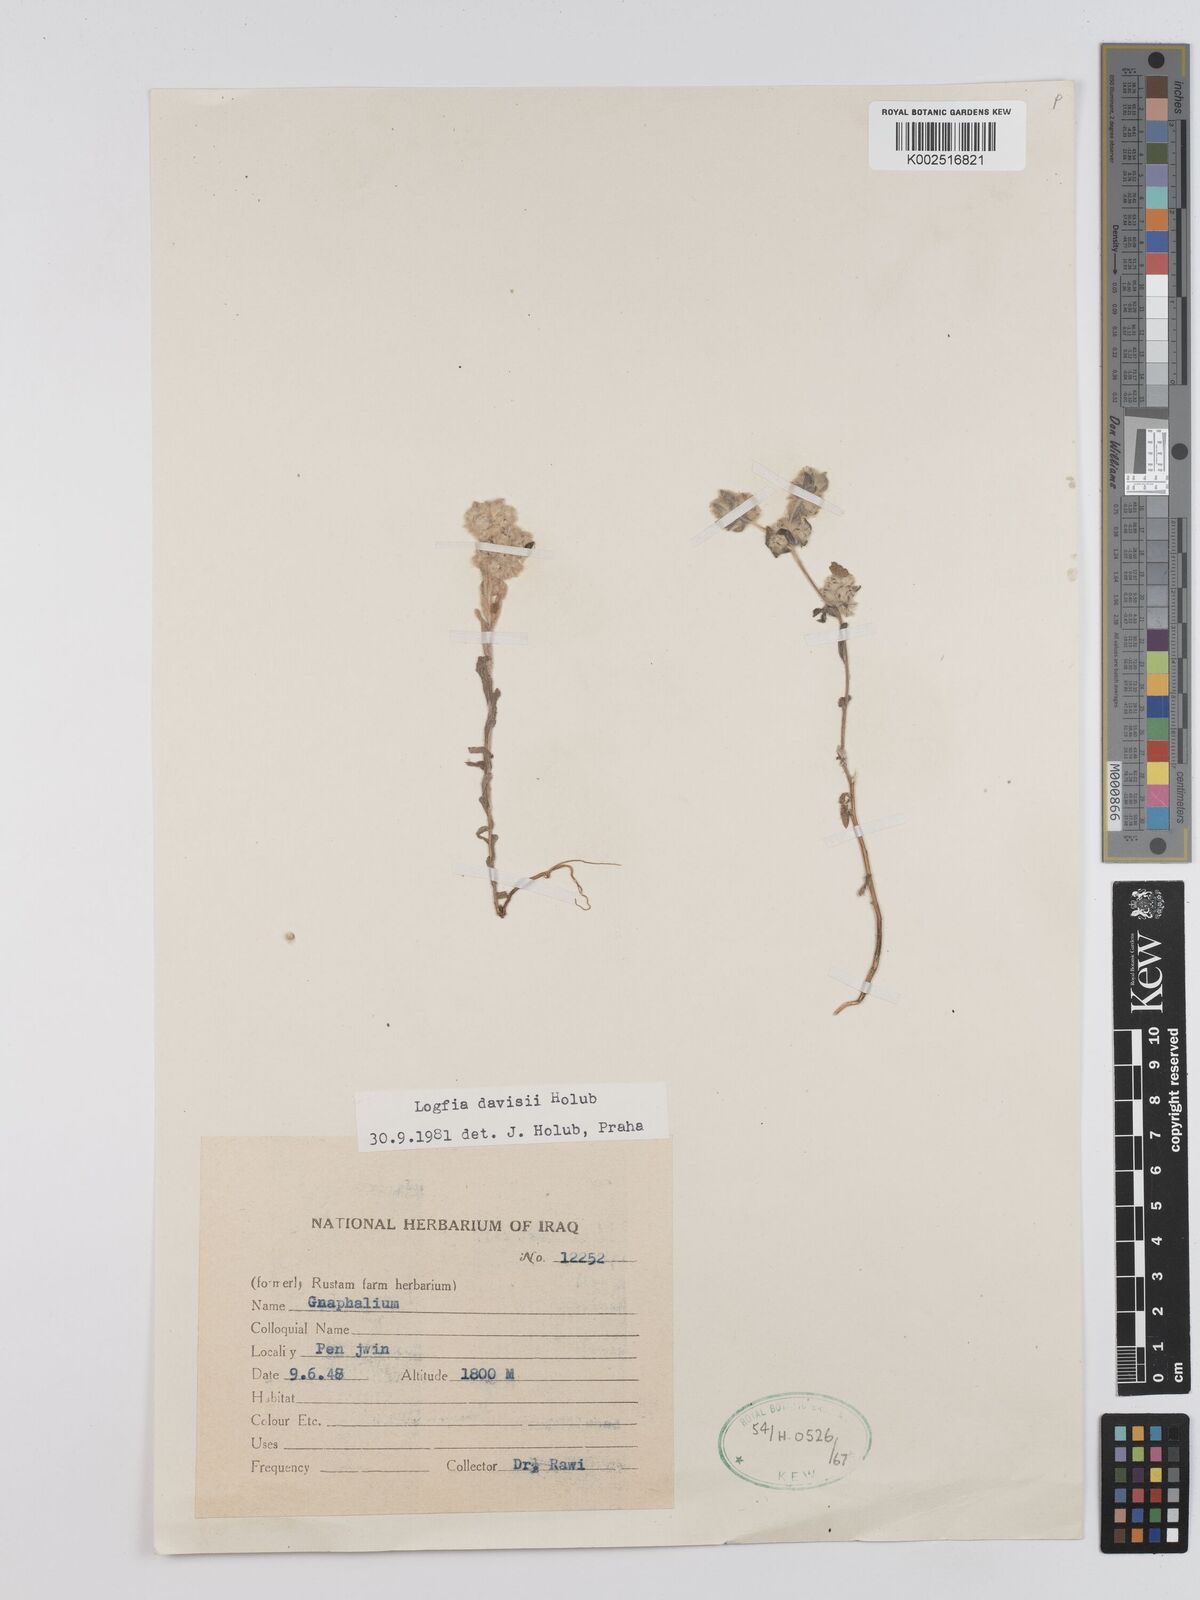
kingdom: Plantae
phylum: Tracheophyta
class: Magnoliopsida
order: Asterales
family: Asteraceae
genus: Filago
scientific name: Filago arvensis
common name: Field cudweed
